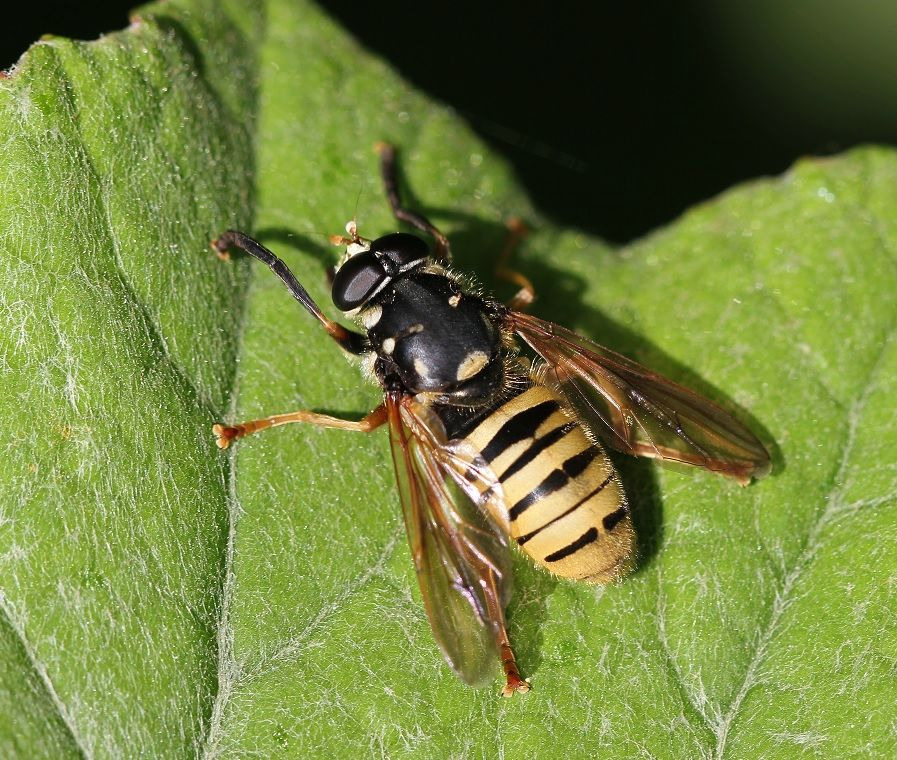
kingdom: Animalia
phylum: Arthropoda
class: Insecta
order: Diptera
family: Syrphidae
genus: Temnostoma
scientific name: Temnostoma meridionale
